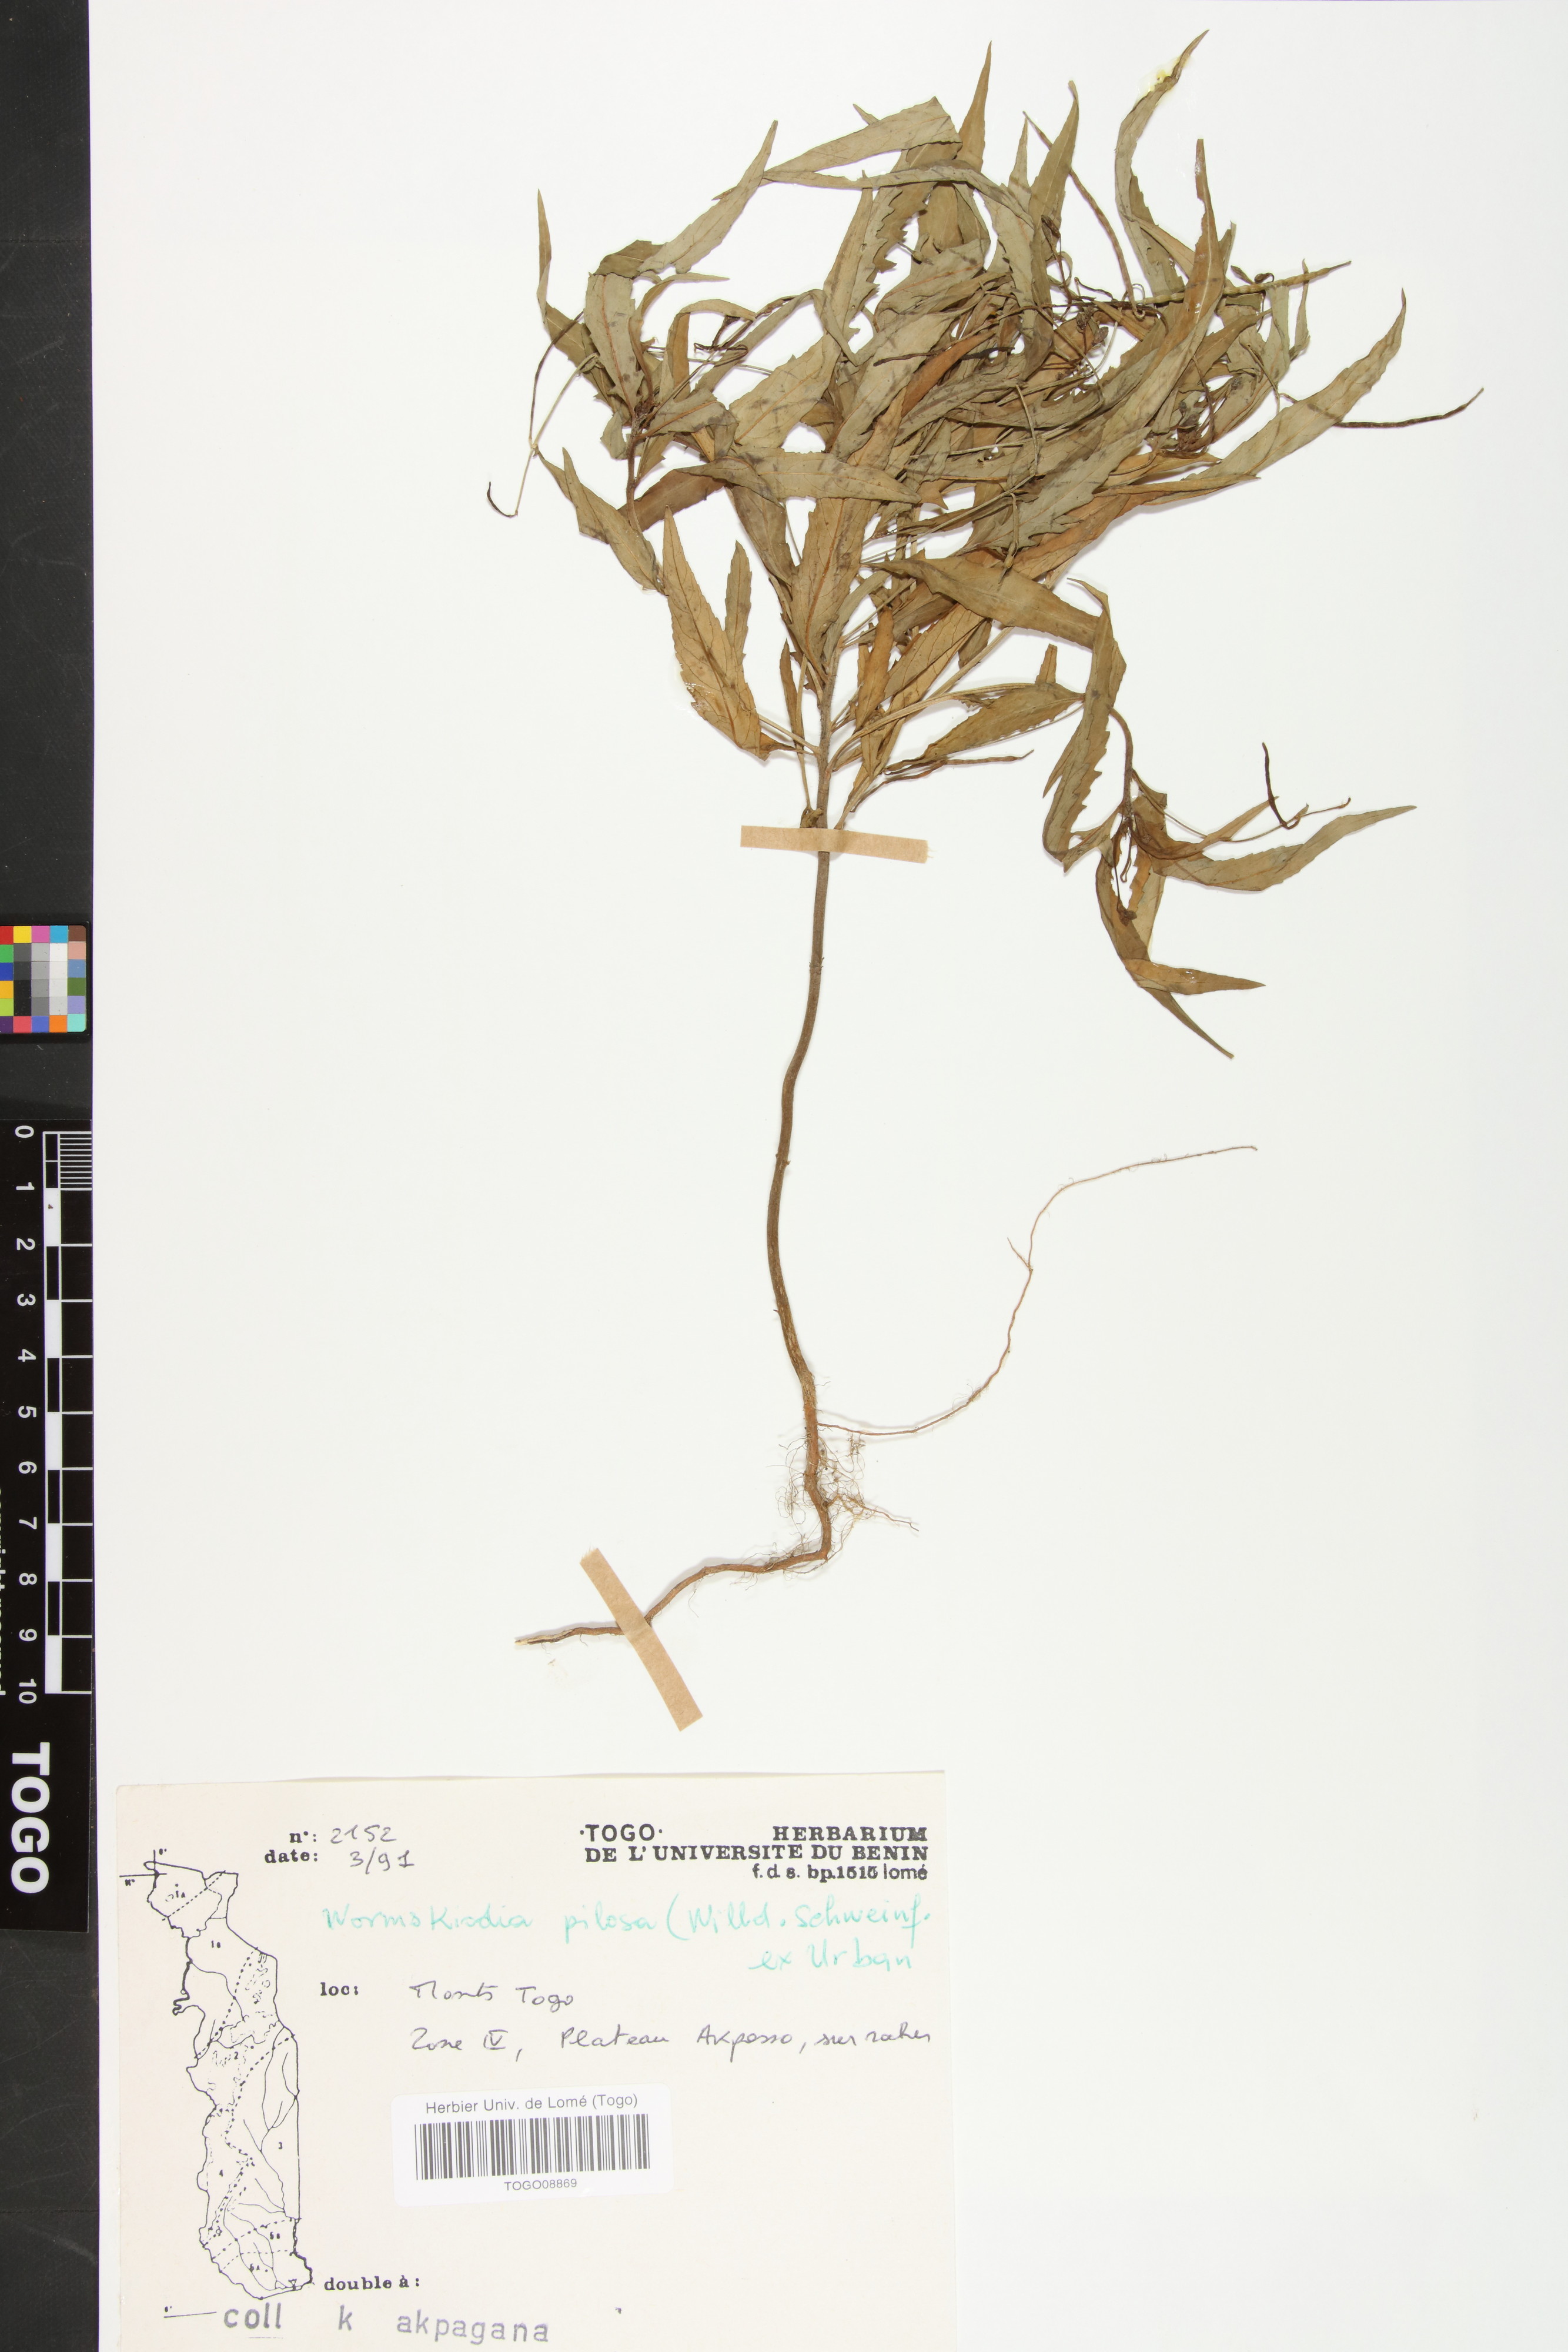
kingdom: Plantae
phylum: Tracheophyta
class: Magnoliopsida
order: Malpighiales
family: Turneraceae
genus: Tricliceras
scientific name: Tricliceras pilosum
